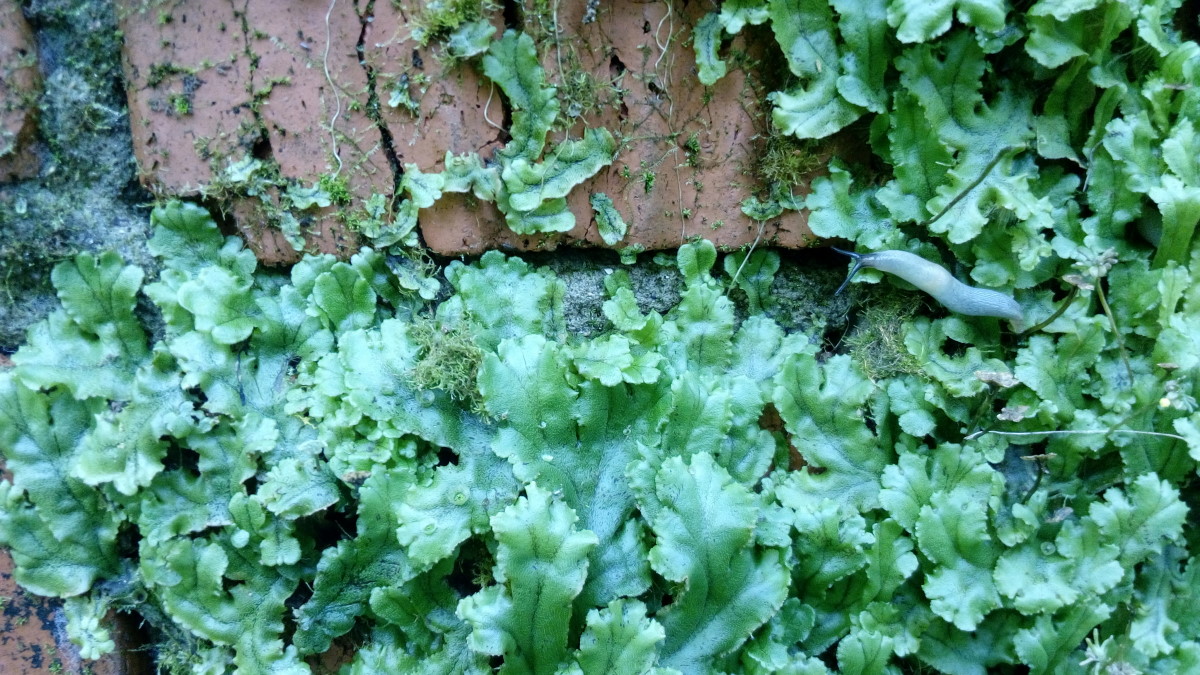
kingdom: Plantae
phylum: Marchantiophyta
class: Marchantiopsida
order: Marchantiales
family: Marchantiaceae
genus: Marchantia
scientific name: Marchantia polymorpha
